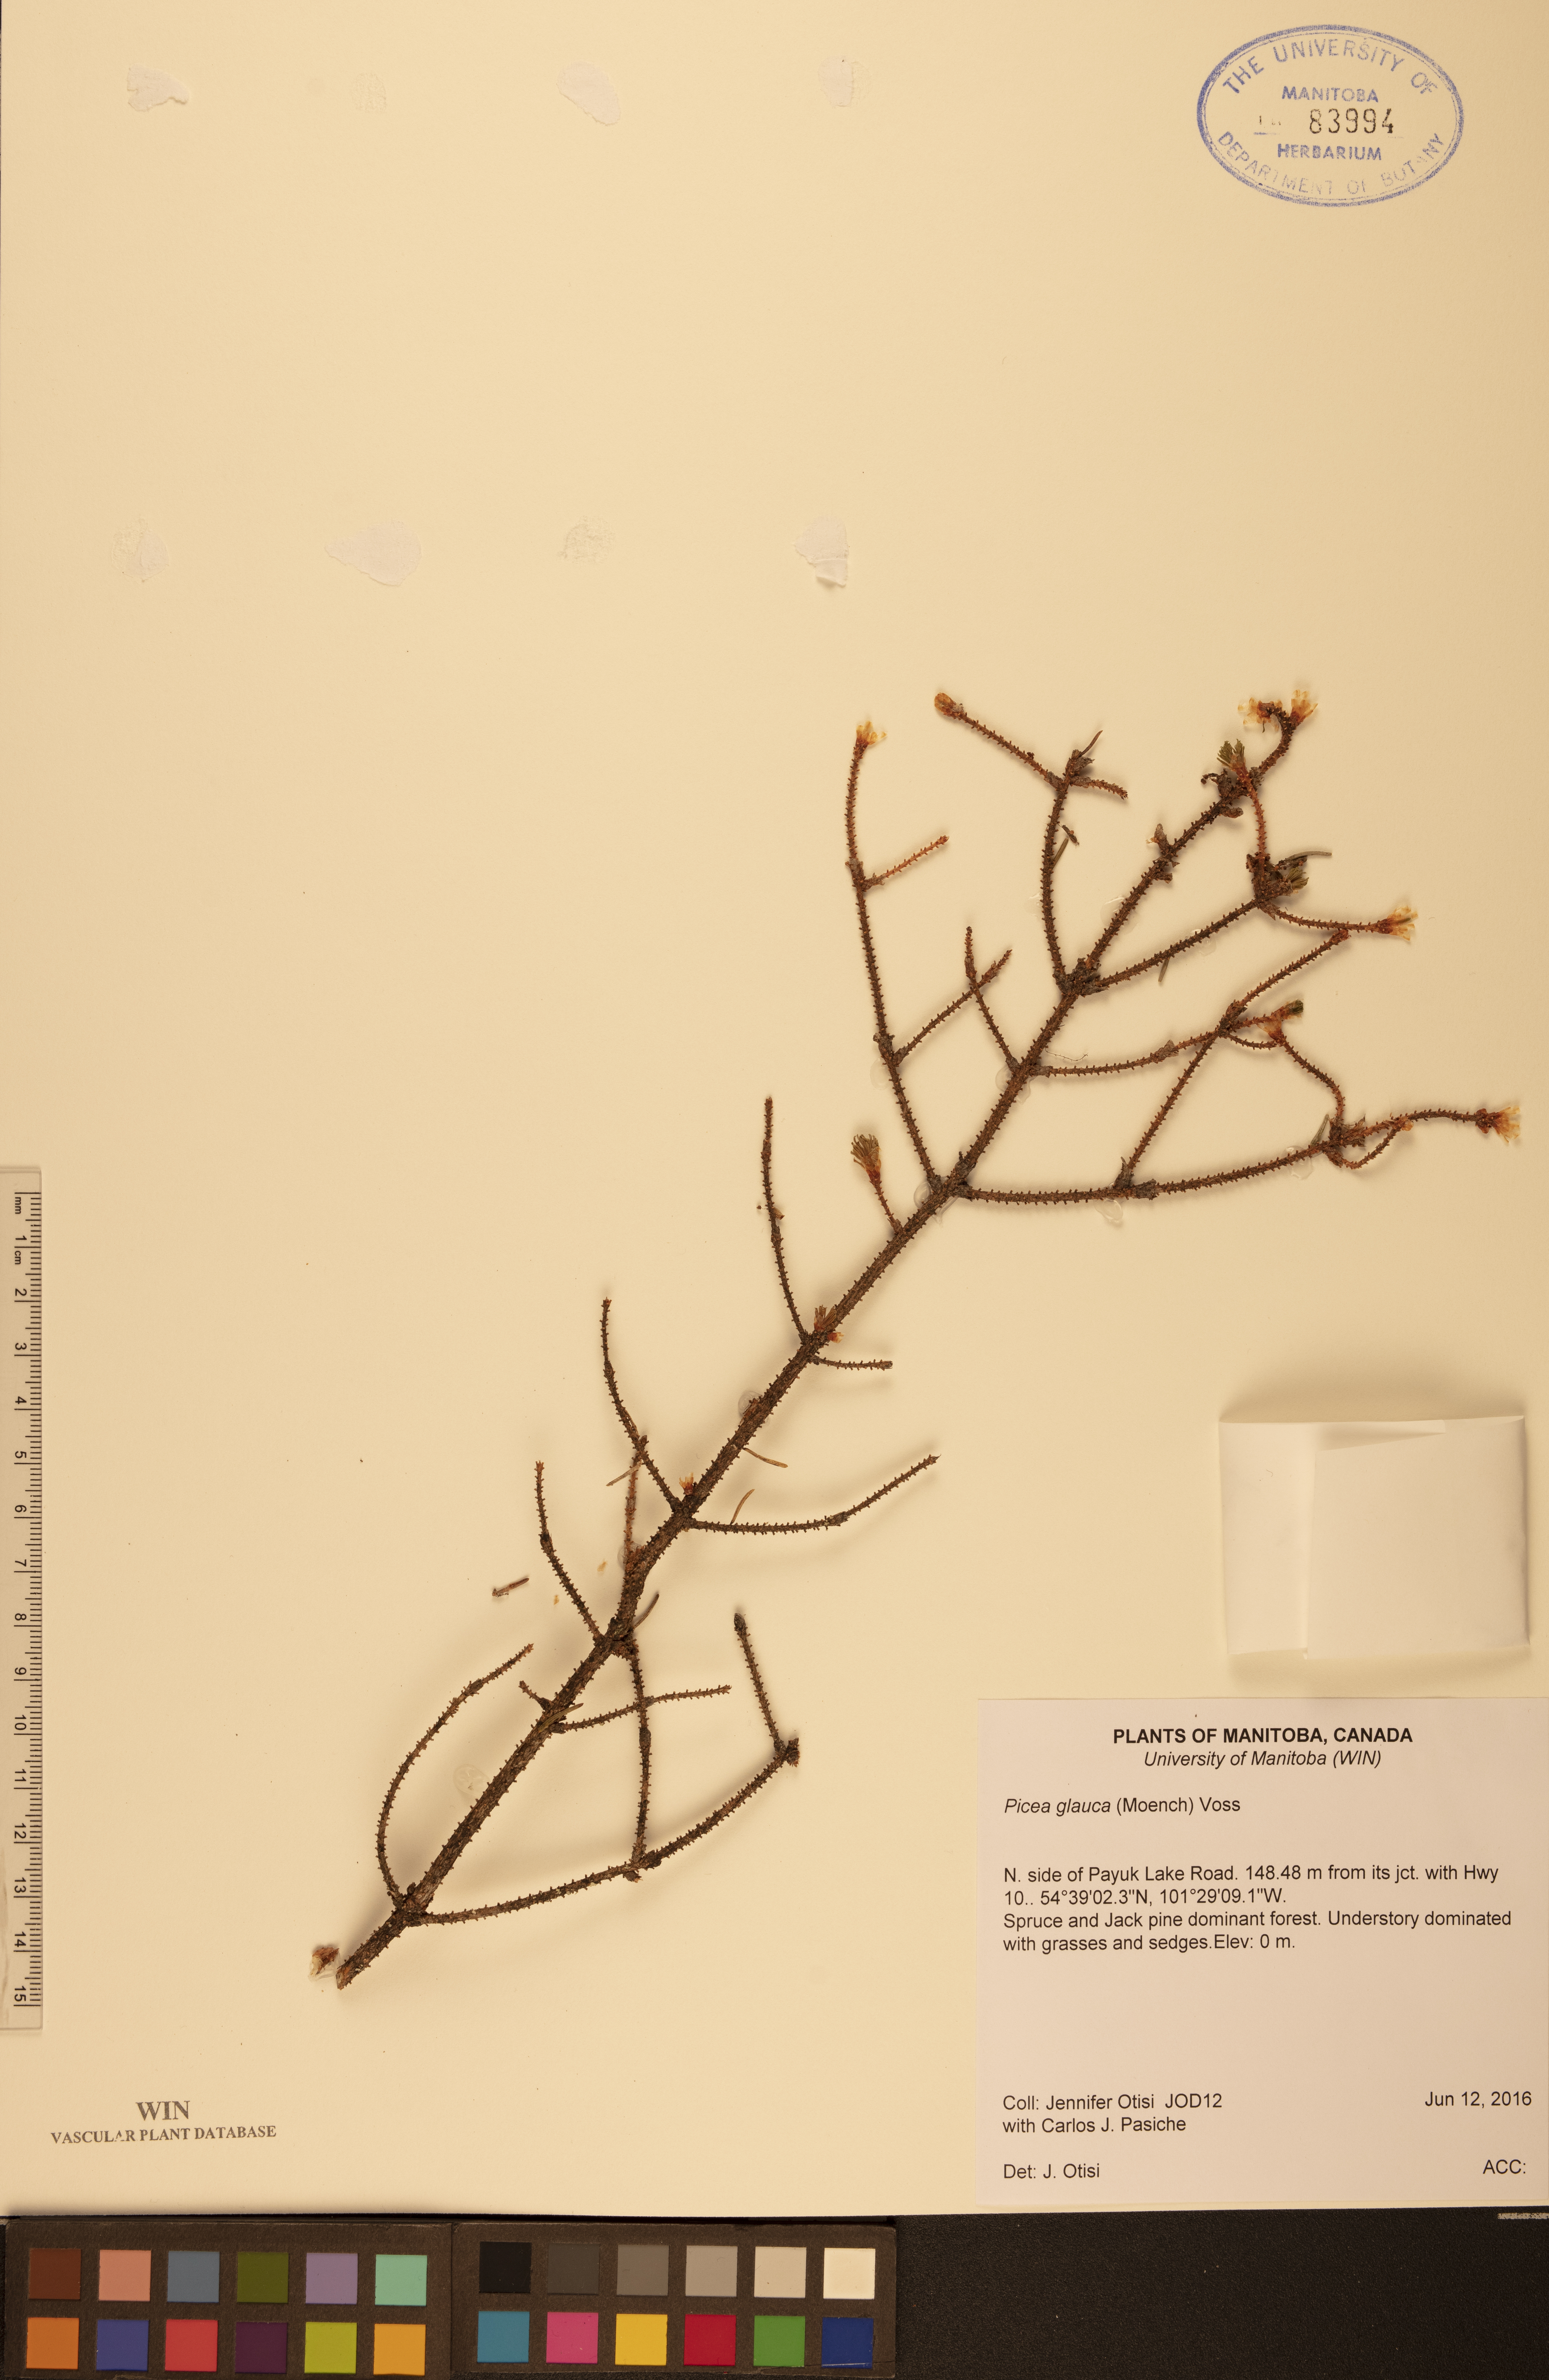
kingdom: Plantae
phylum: Tracheophyta
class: Pinopsida
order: Pinales
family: Pinaceae
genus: Picea
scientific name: Picea glauca
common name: White spruce
